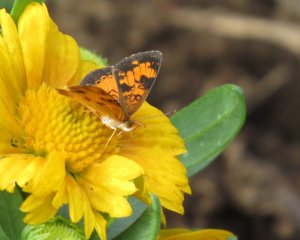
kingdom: Animalia
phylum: Arthropoda
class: Insecta
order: Lepidoptera
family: Nymphalidae
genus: Phyciodes
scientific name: Phyciodes tharos
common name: Northern Crescent
